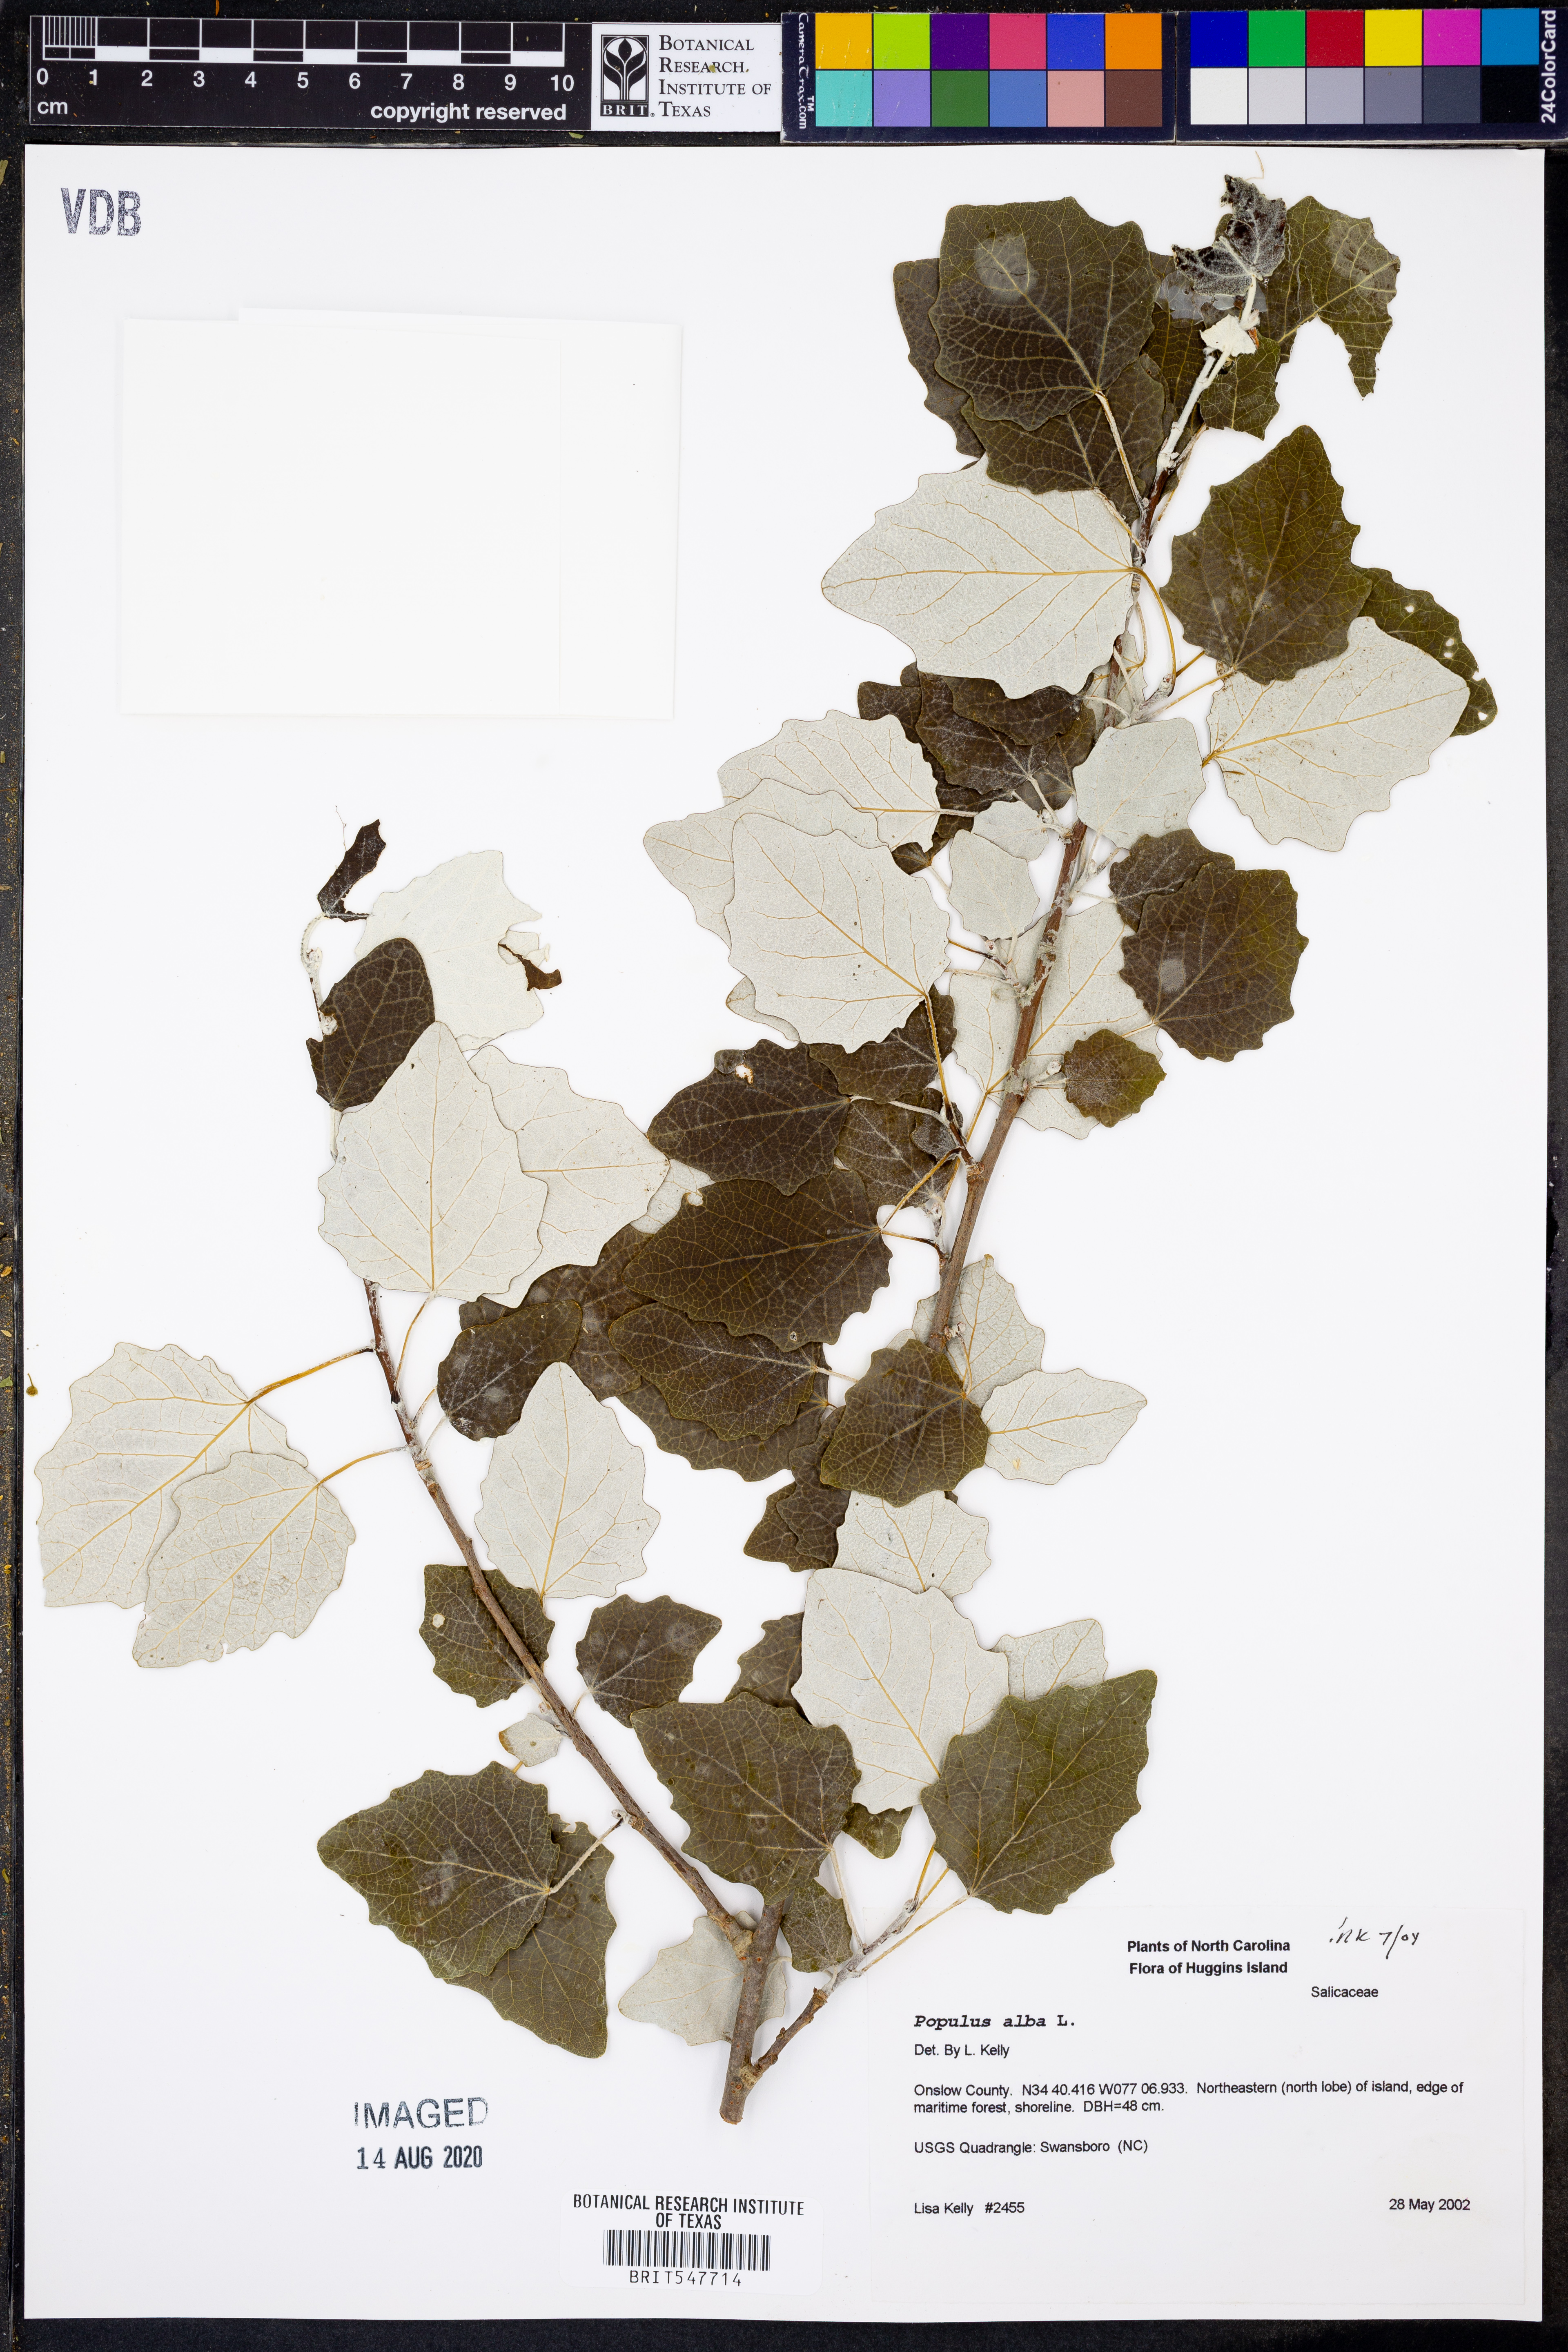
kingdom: Plantae
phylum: Tracheophyta
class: Magnoliopsida
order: Malpighiales
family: Salicaceae
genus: Populus
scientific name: Populus alba
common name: White poplar
